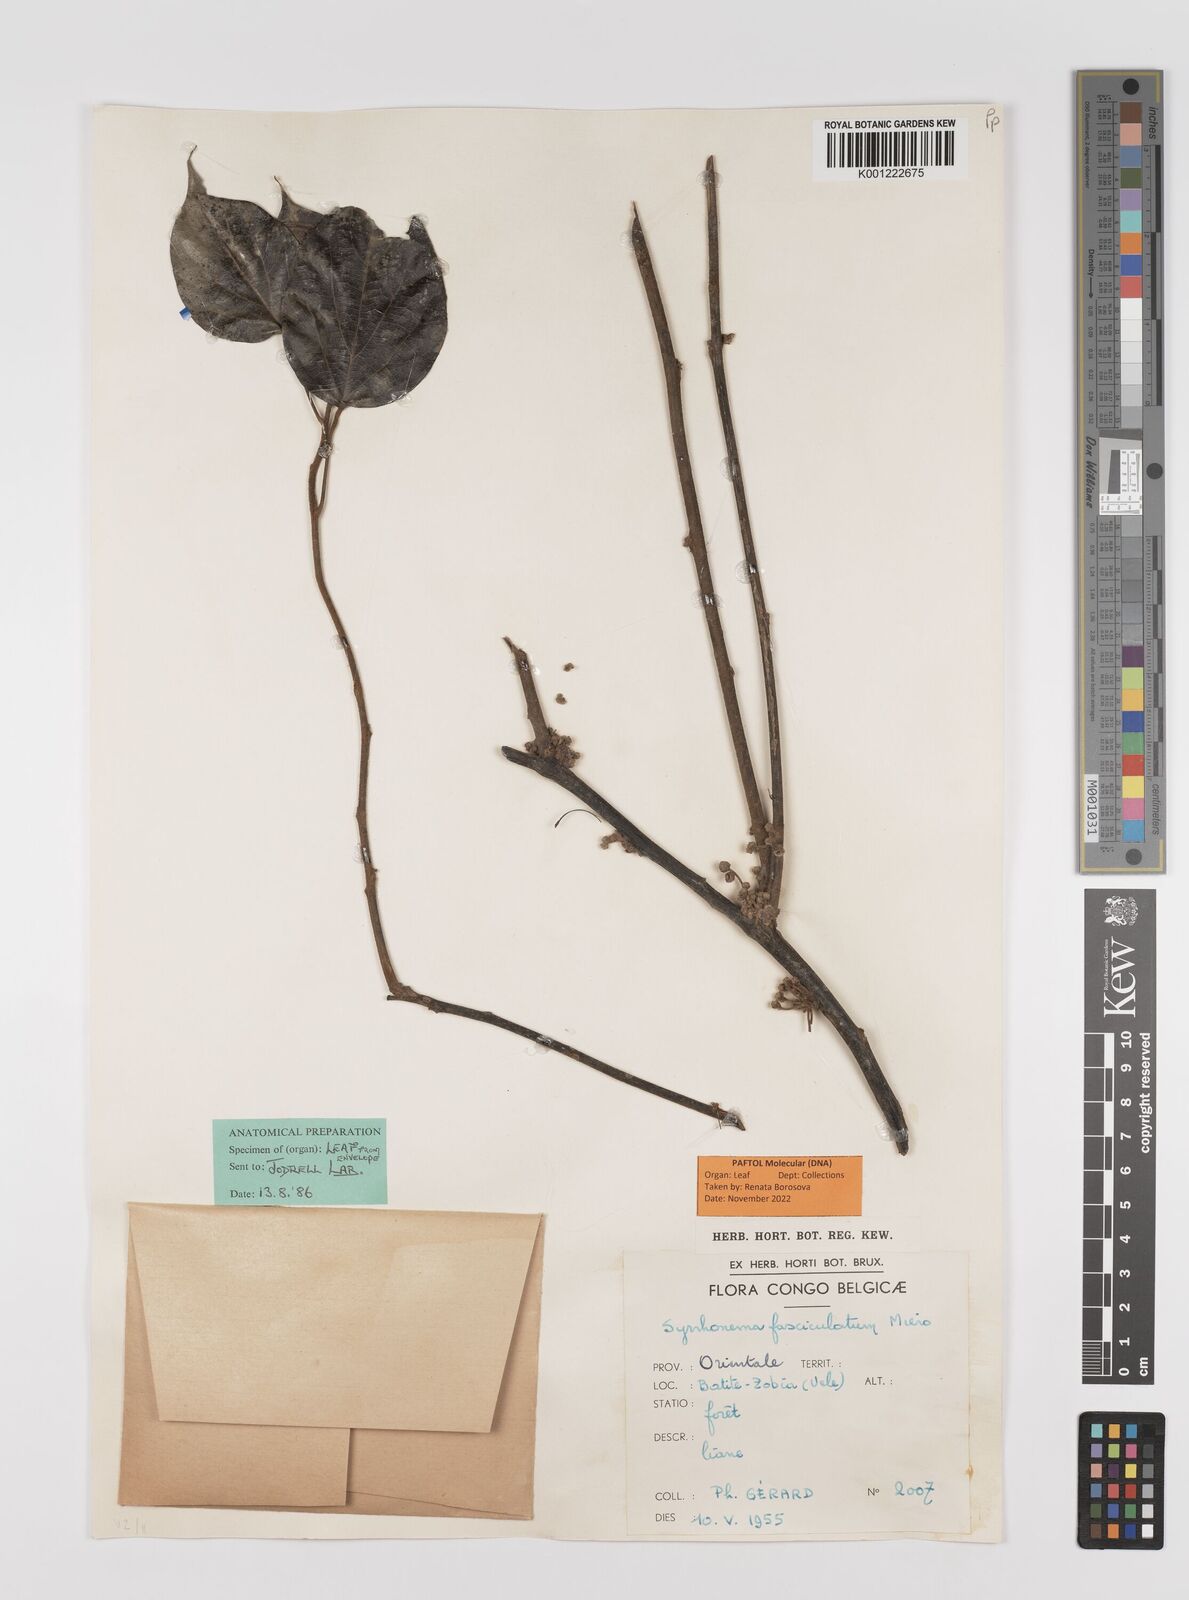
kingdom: Plantae
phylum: Tracheophyta
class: Magnoliopsida
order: Ranunculales
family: Menispermaceae
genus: Syrrheonema
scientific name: Syrrheonema fasciculatum
